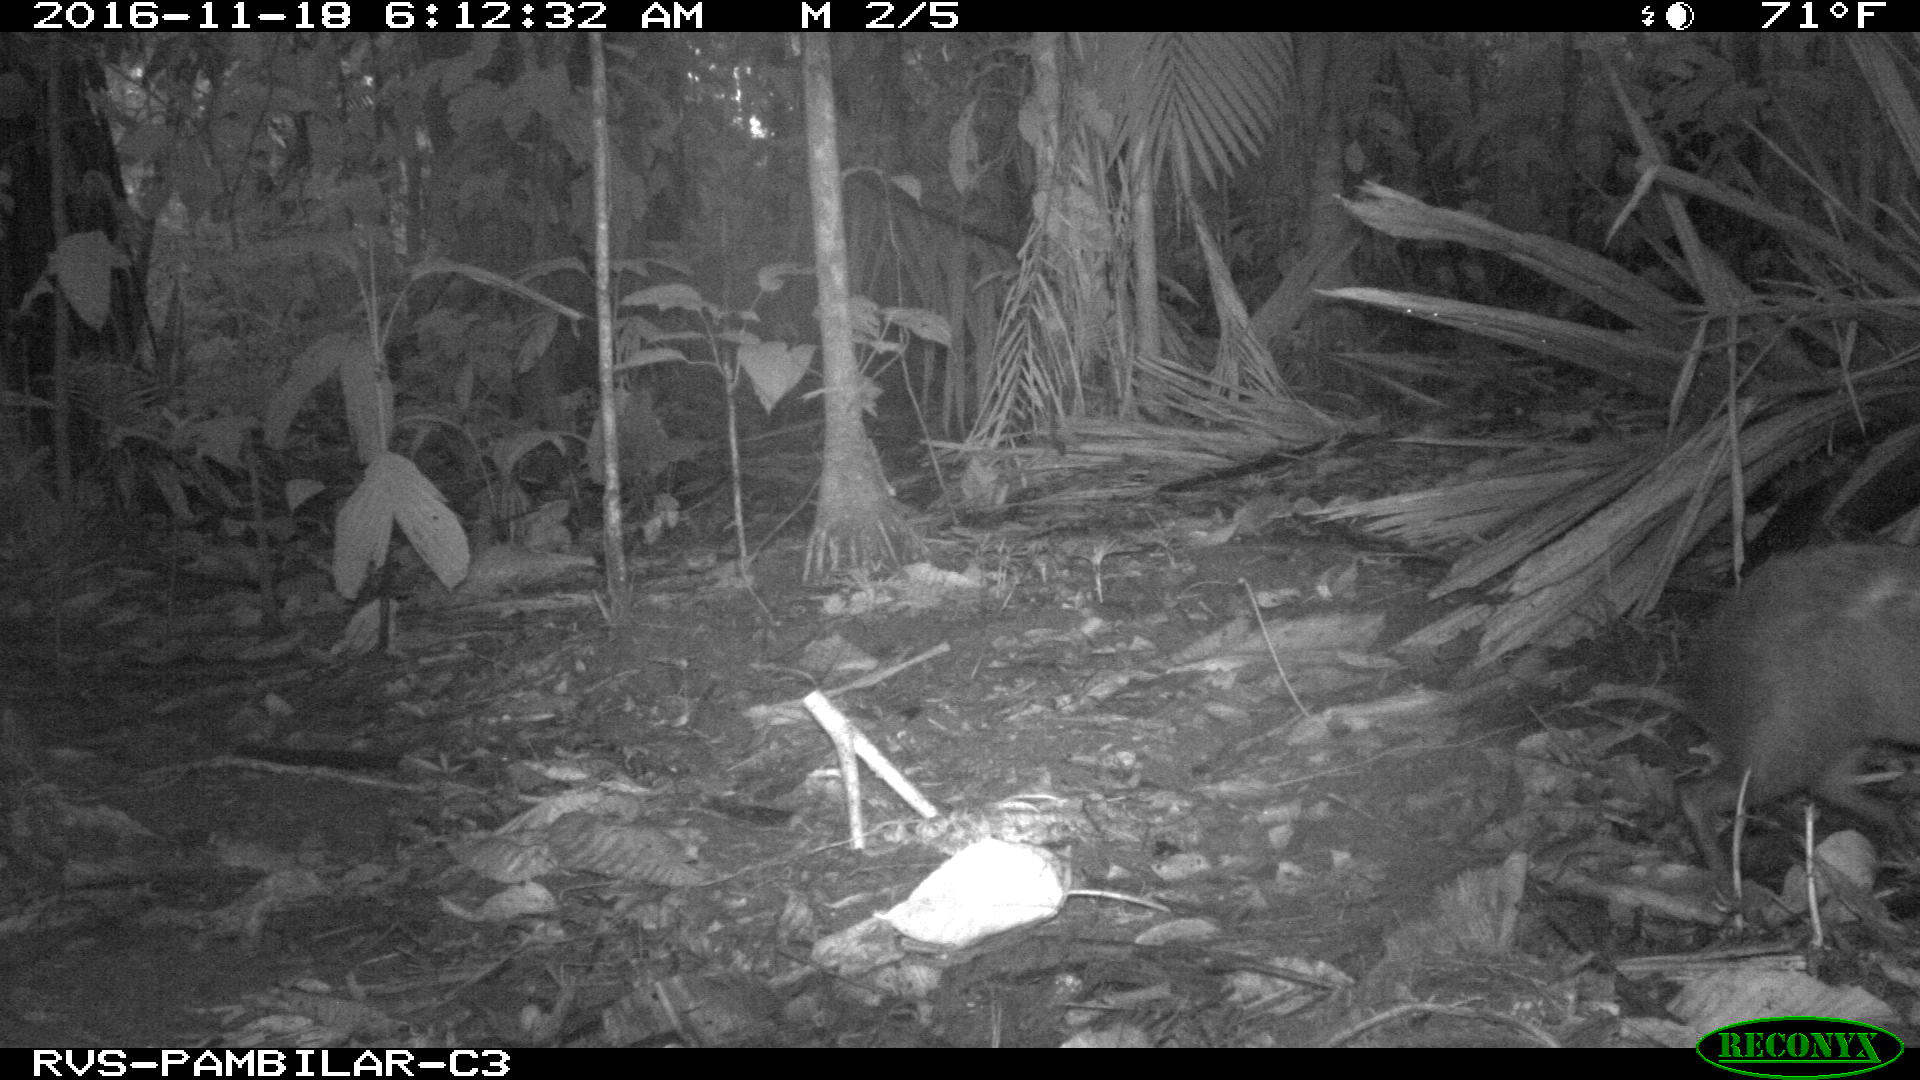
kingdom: Animalia
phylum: Chordata
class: Mammalia
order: Rodentia
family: Dasyproctidae
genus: Dasyprocta
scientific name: Dasyprocta punctata
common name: Central american agouti
